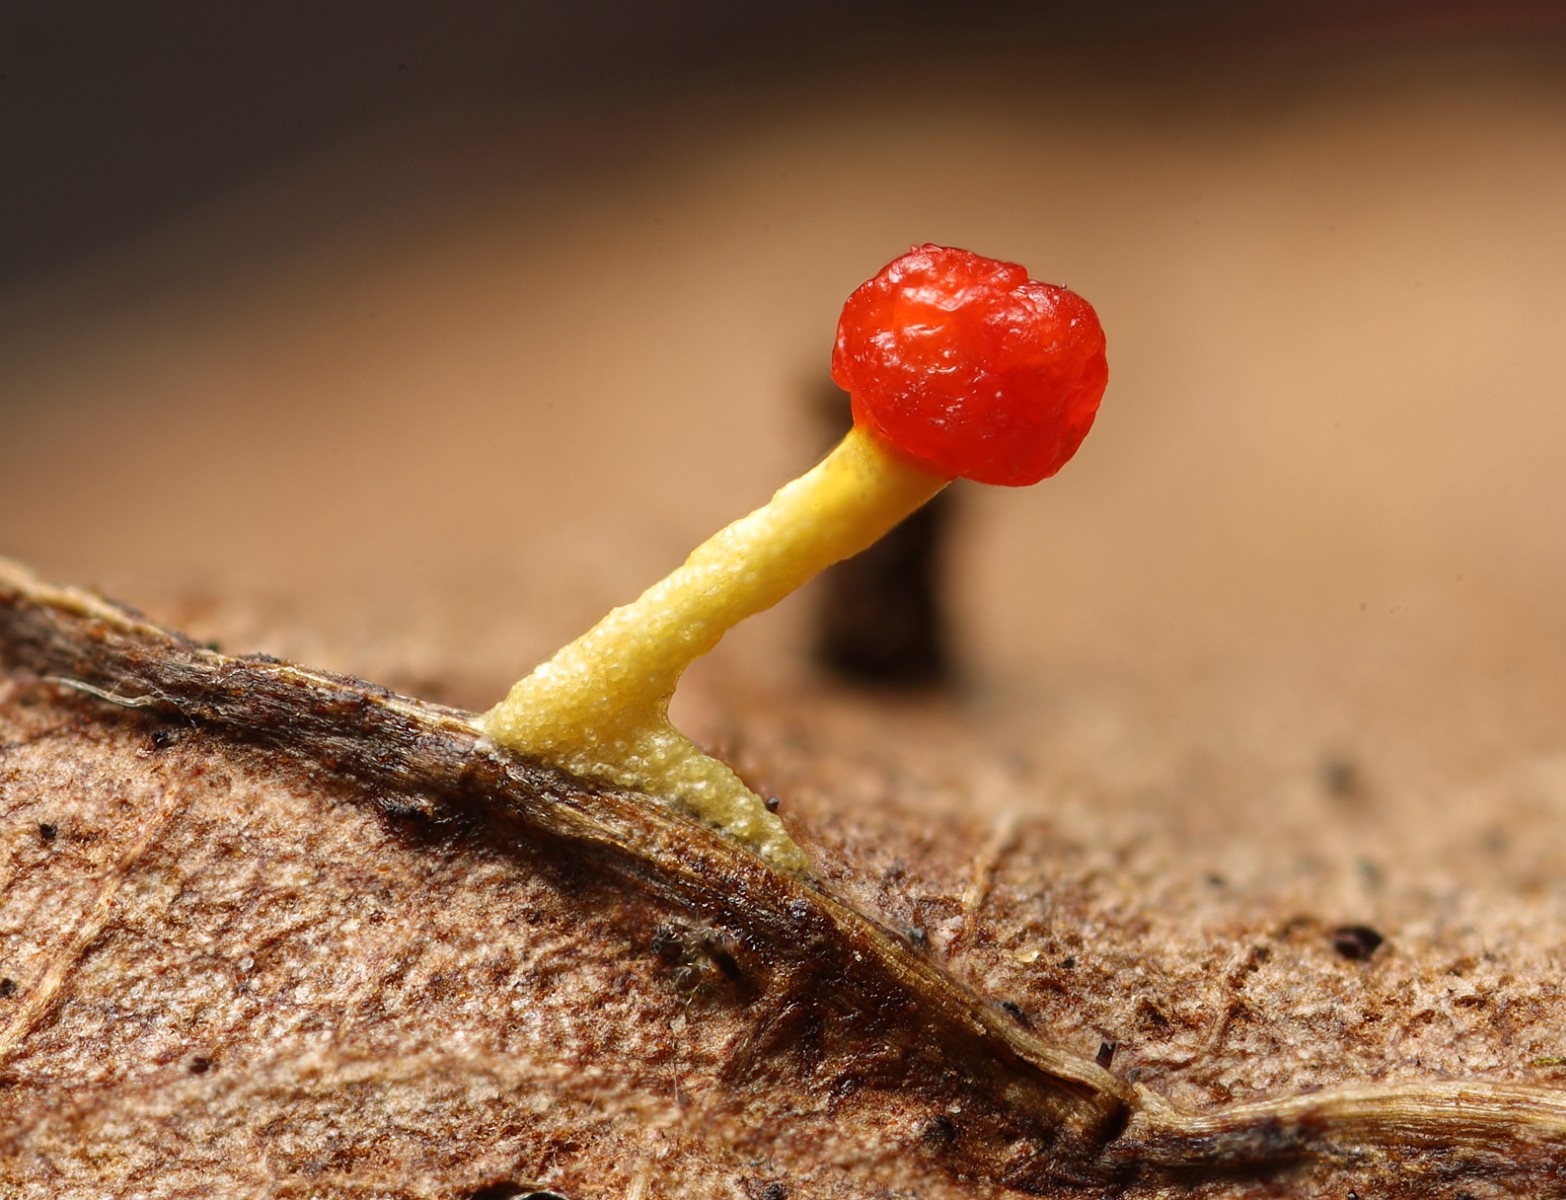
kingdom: Protozoa
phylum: Mycetozoa
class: Myxomycetes
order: Physarales
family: Physaraceae
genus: Physarum
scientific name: Physarum schroeteri
